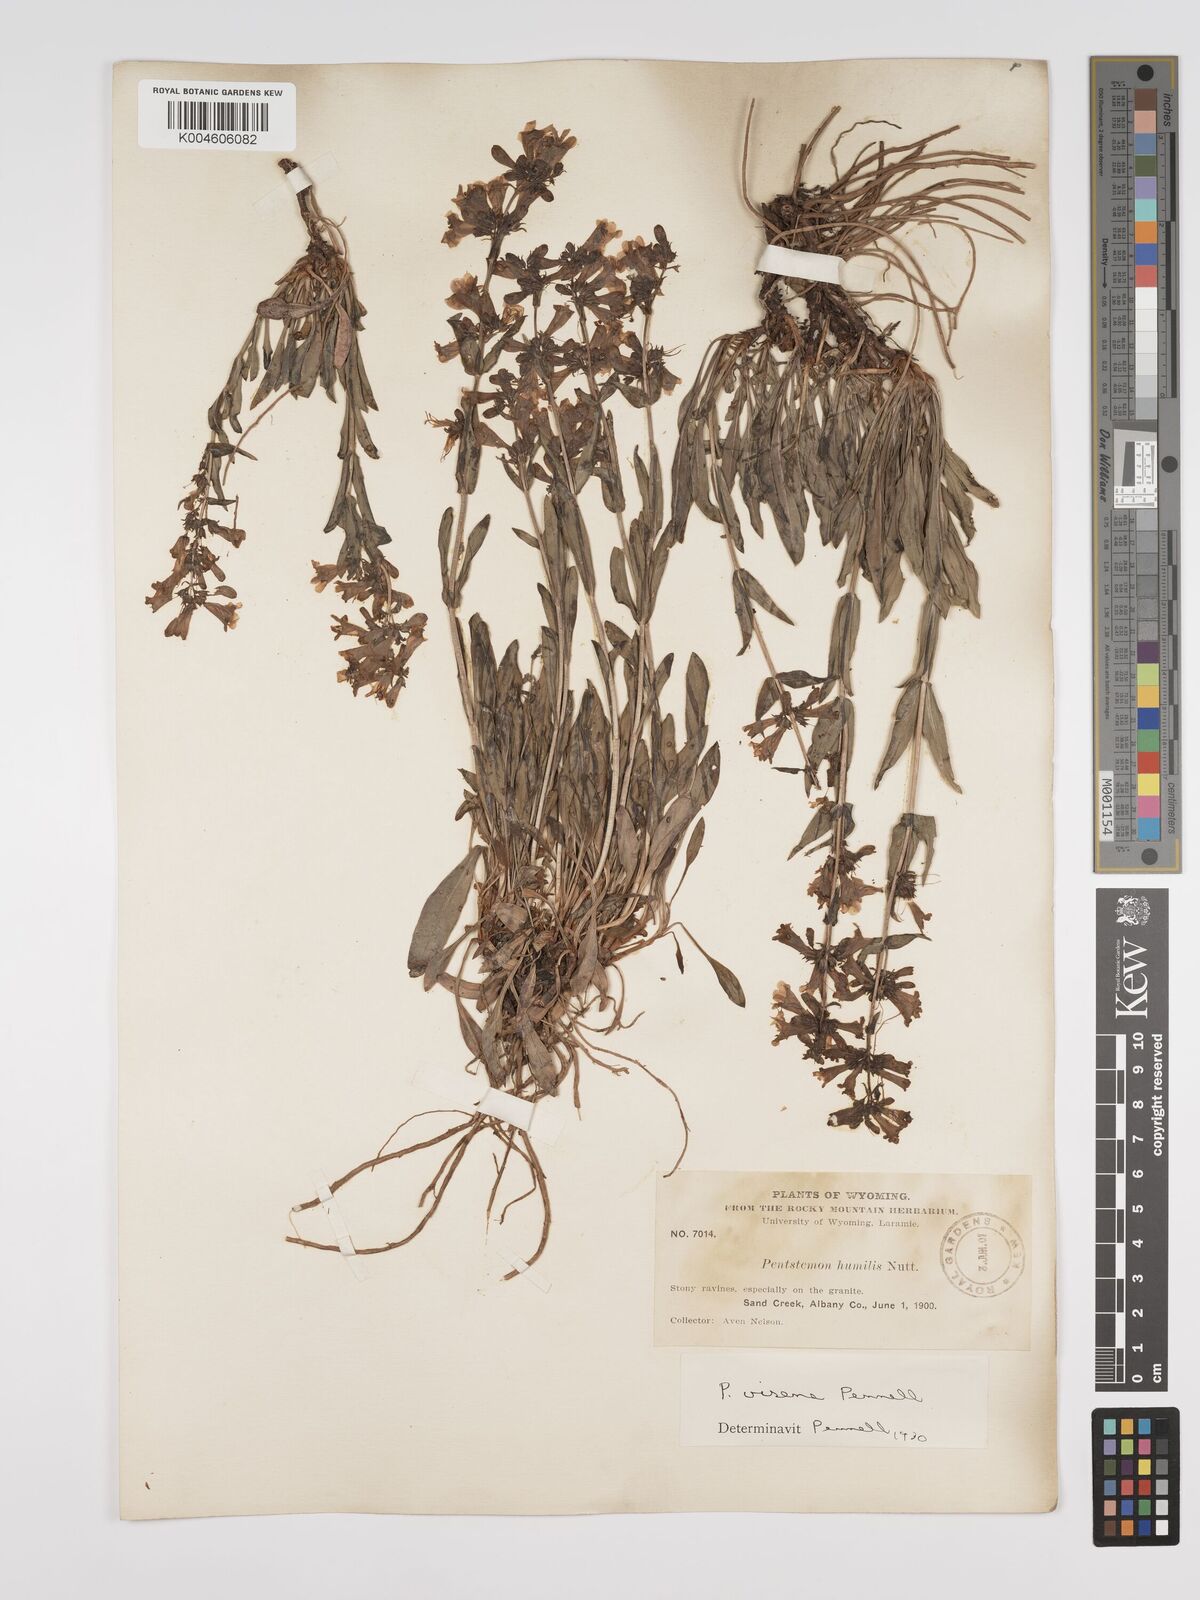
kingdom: Plantae
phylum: Tracheophyta
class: Magnoliopsida
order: Lamiales
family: Plantaginaceae
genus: Penstemon
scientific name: Penstemon virens
